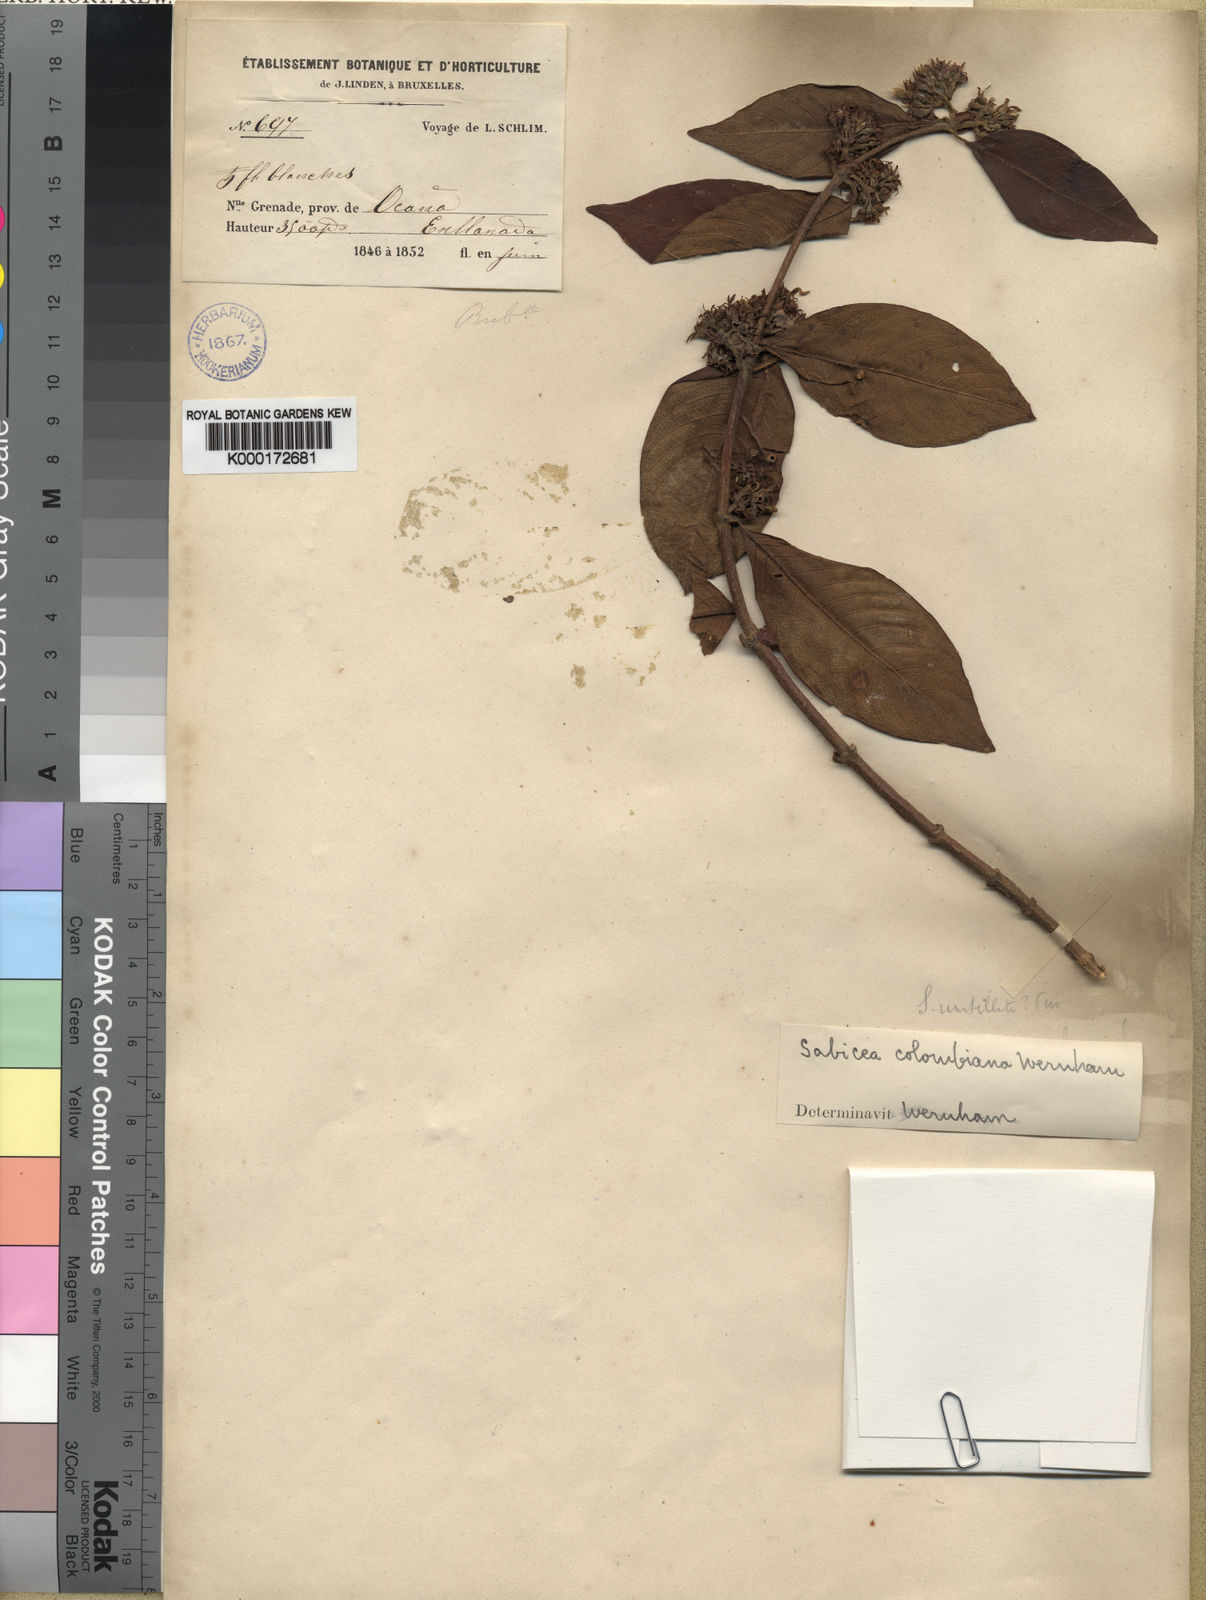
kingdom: Plantae
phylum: Tracheophyta
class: Magnoliopsida
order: Gentianales
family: Rubiaceae
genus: Sabicea
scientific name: Sabicea panamensis
